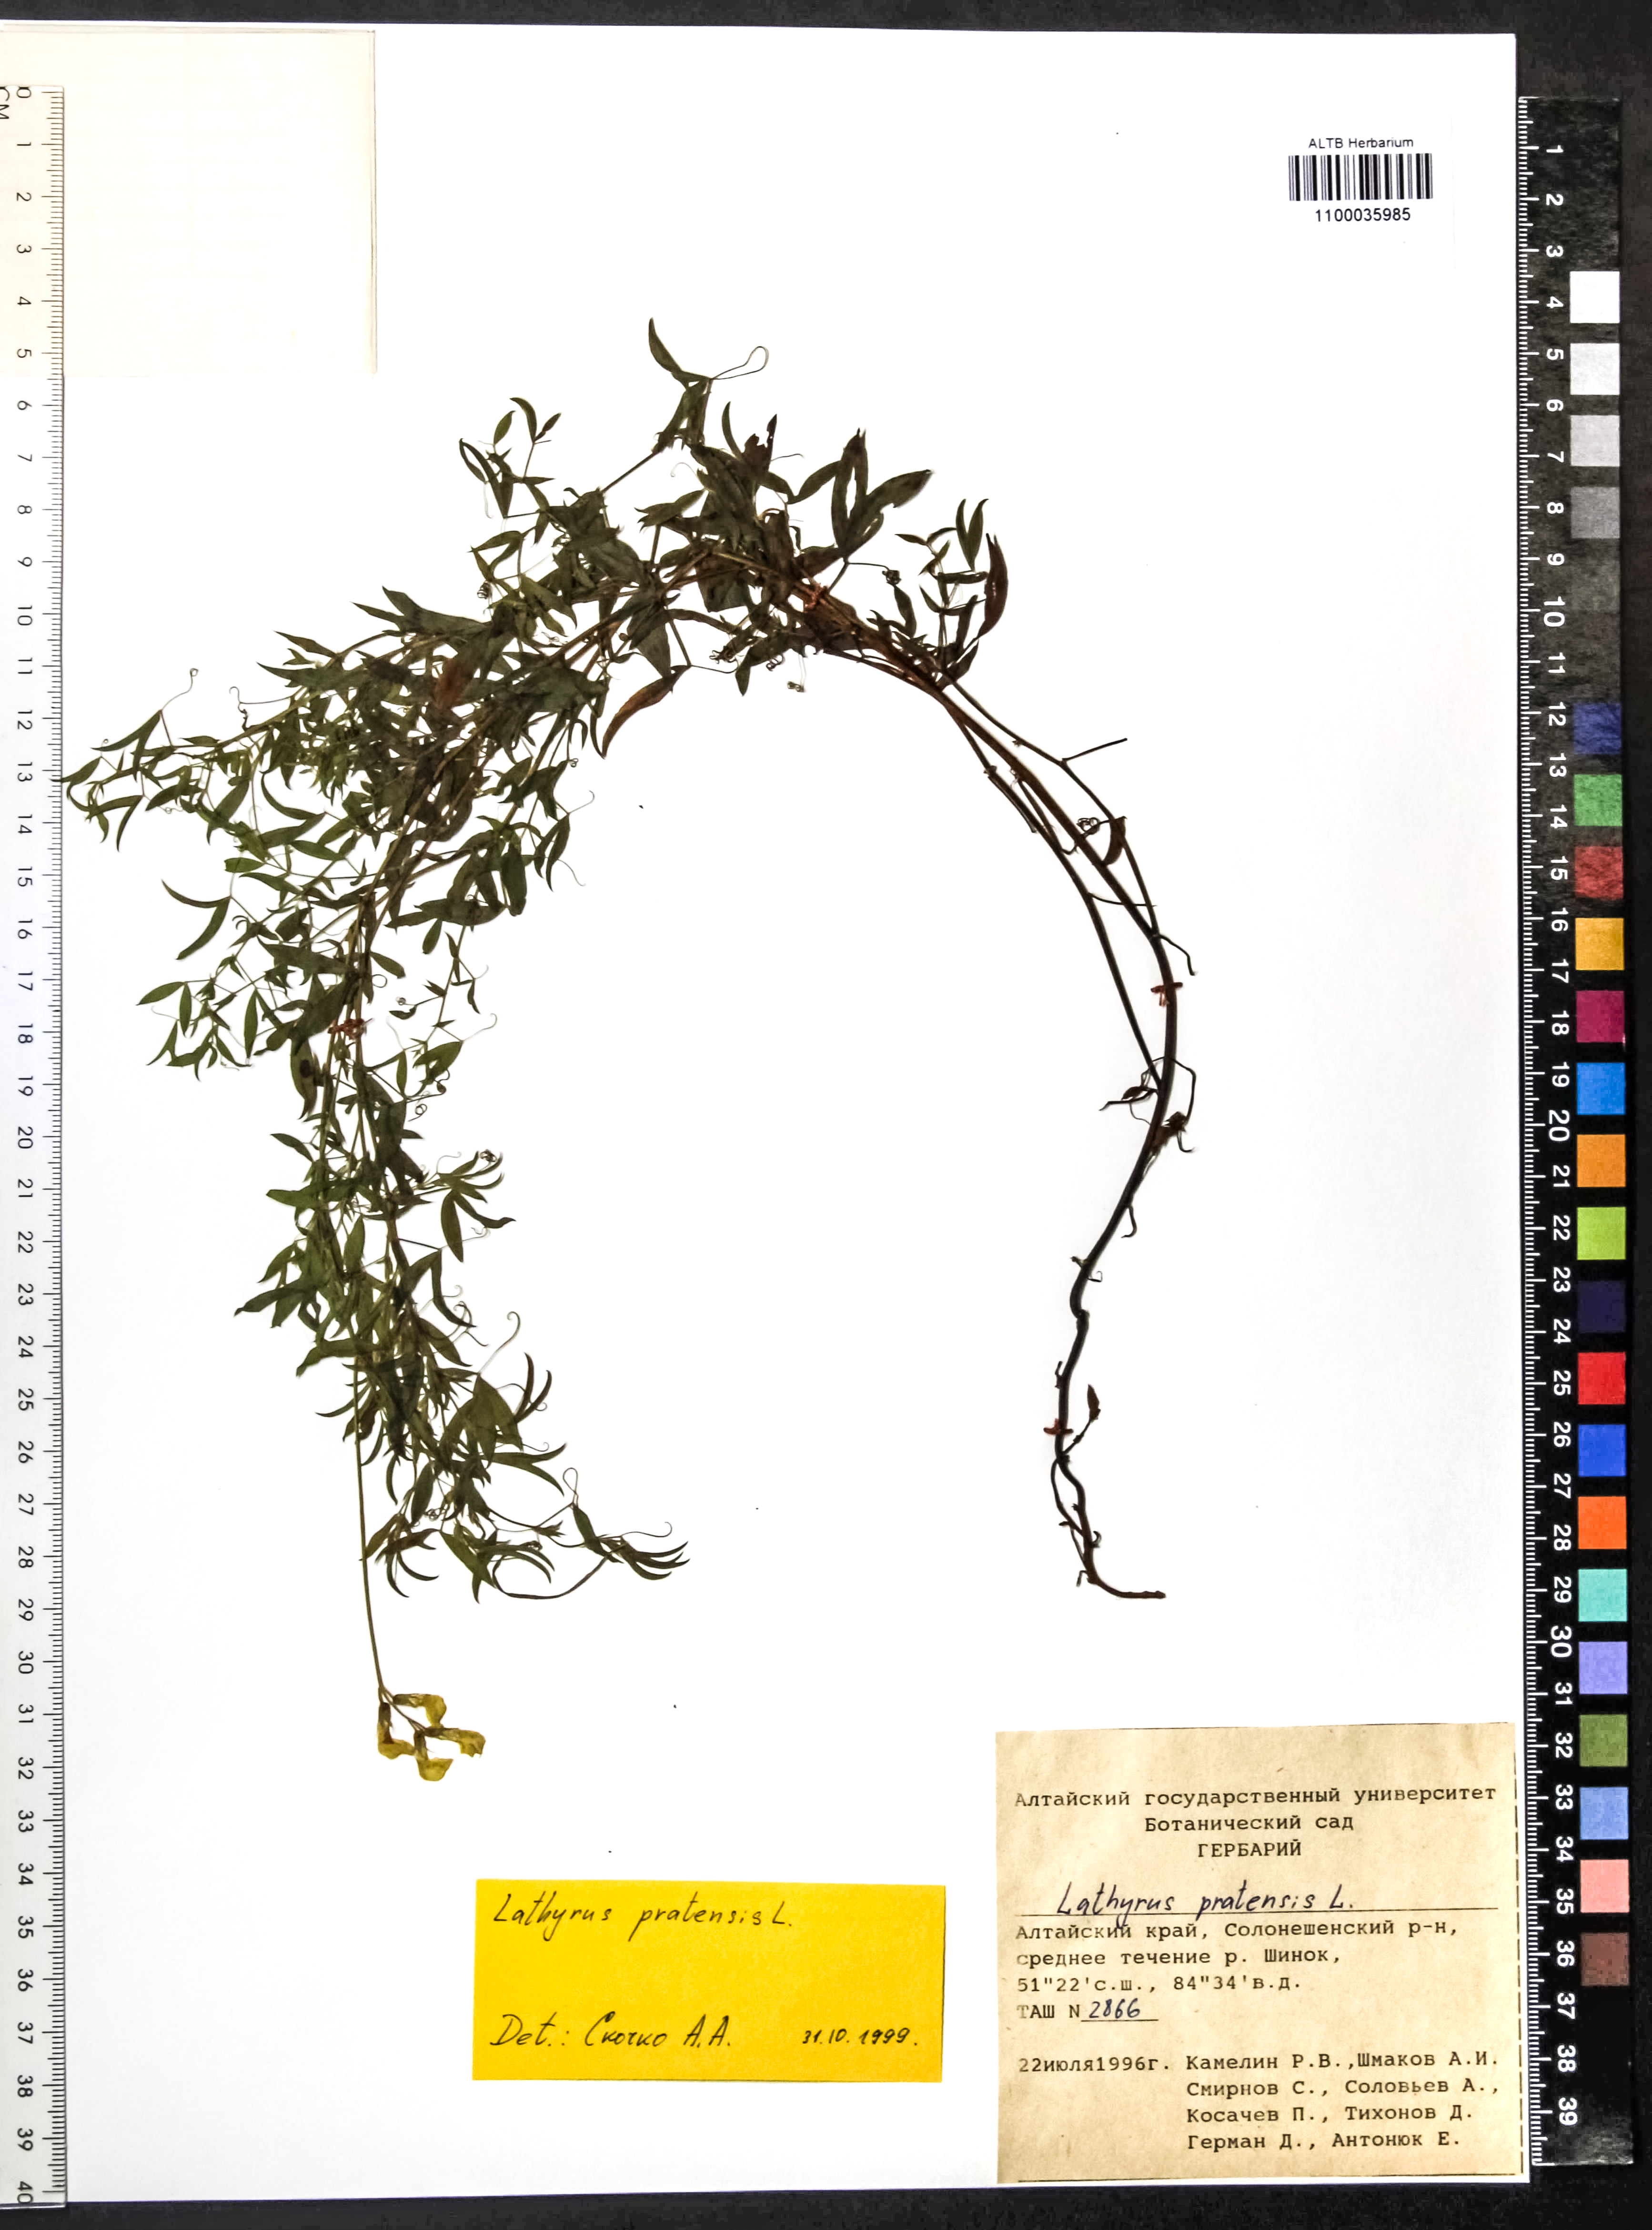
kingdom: Plantae
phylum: Tracheophyta
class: Magnoliopsida
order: Fabales
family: Fabaceae
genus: Lathyrus
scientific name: Lathyrus pratensis
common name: Meadow vetchling
